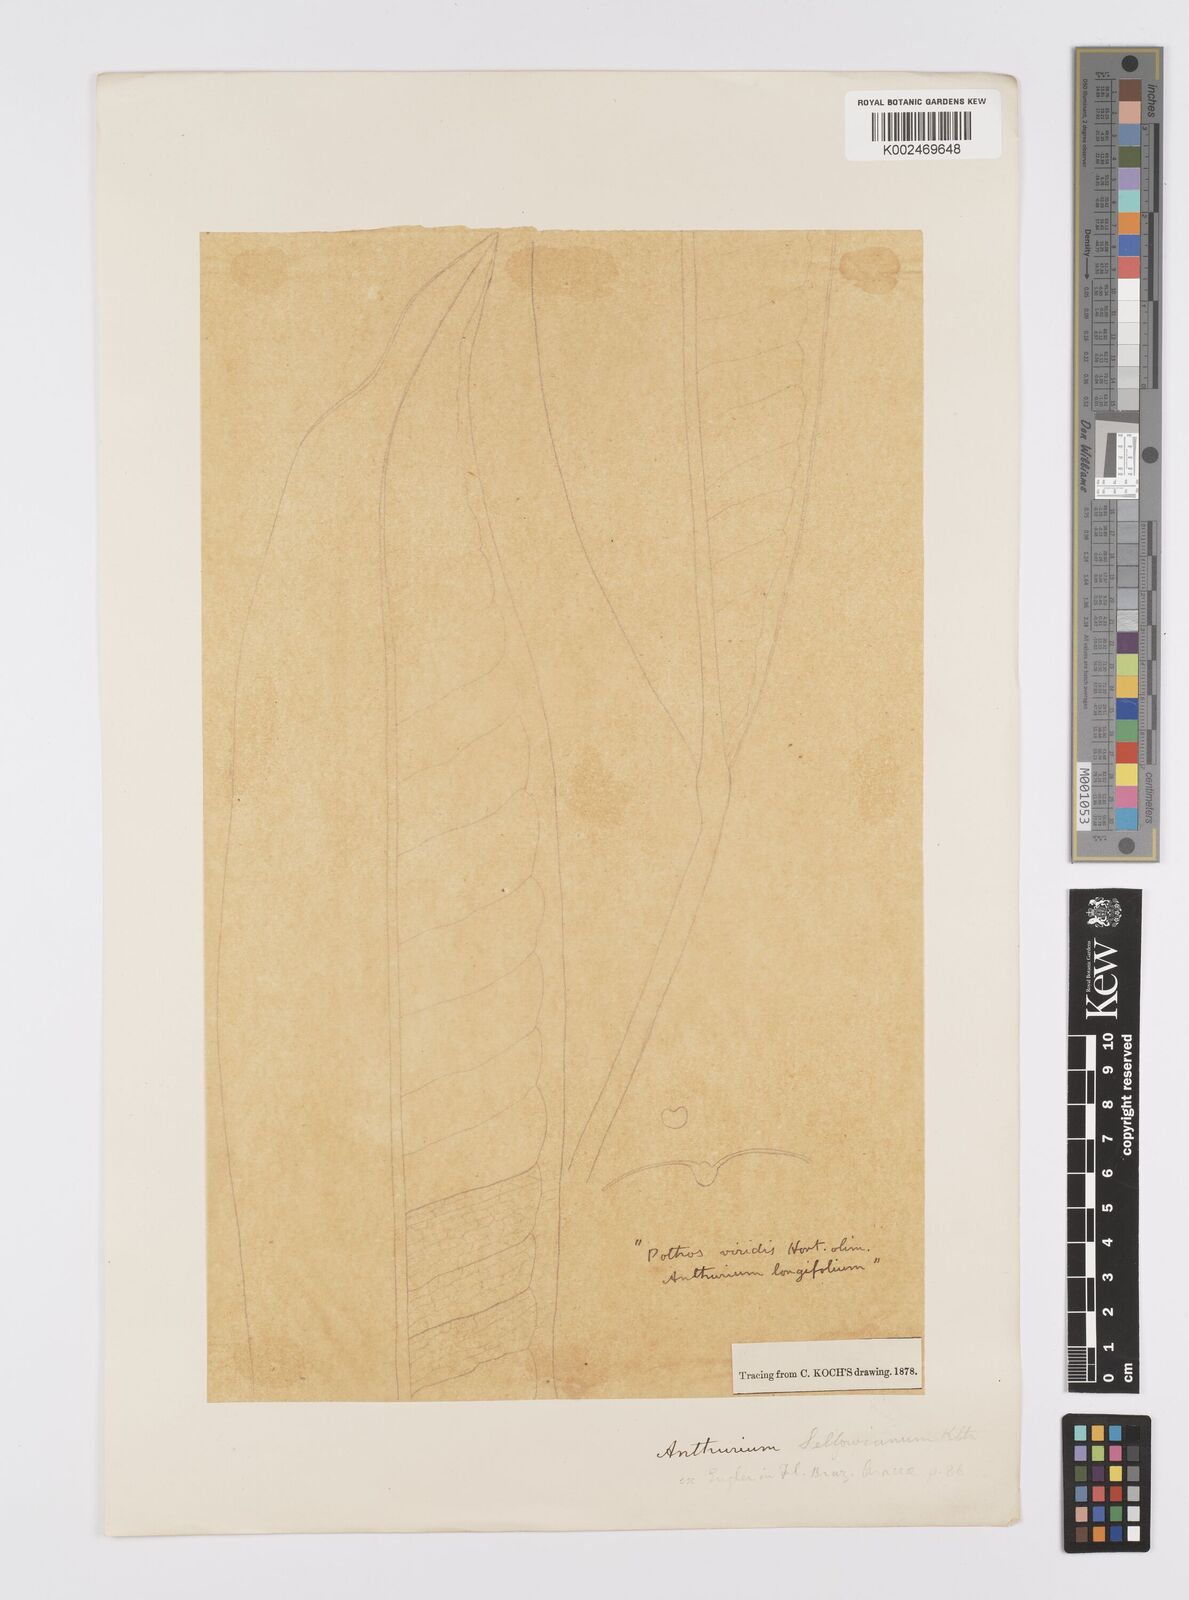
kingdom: Plantae
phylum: Tracheophyta
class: Liliopsida
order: Alismatales
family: Araceae
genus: Anthurium
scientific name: Anthurium sellowianum
